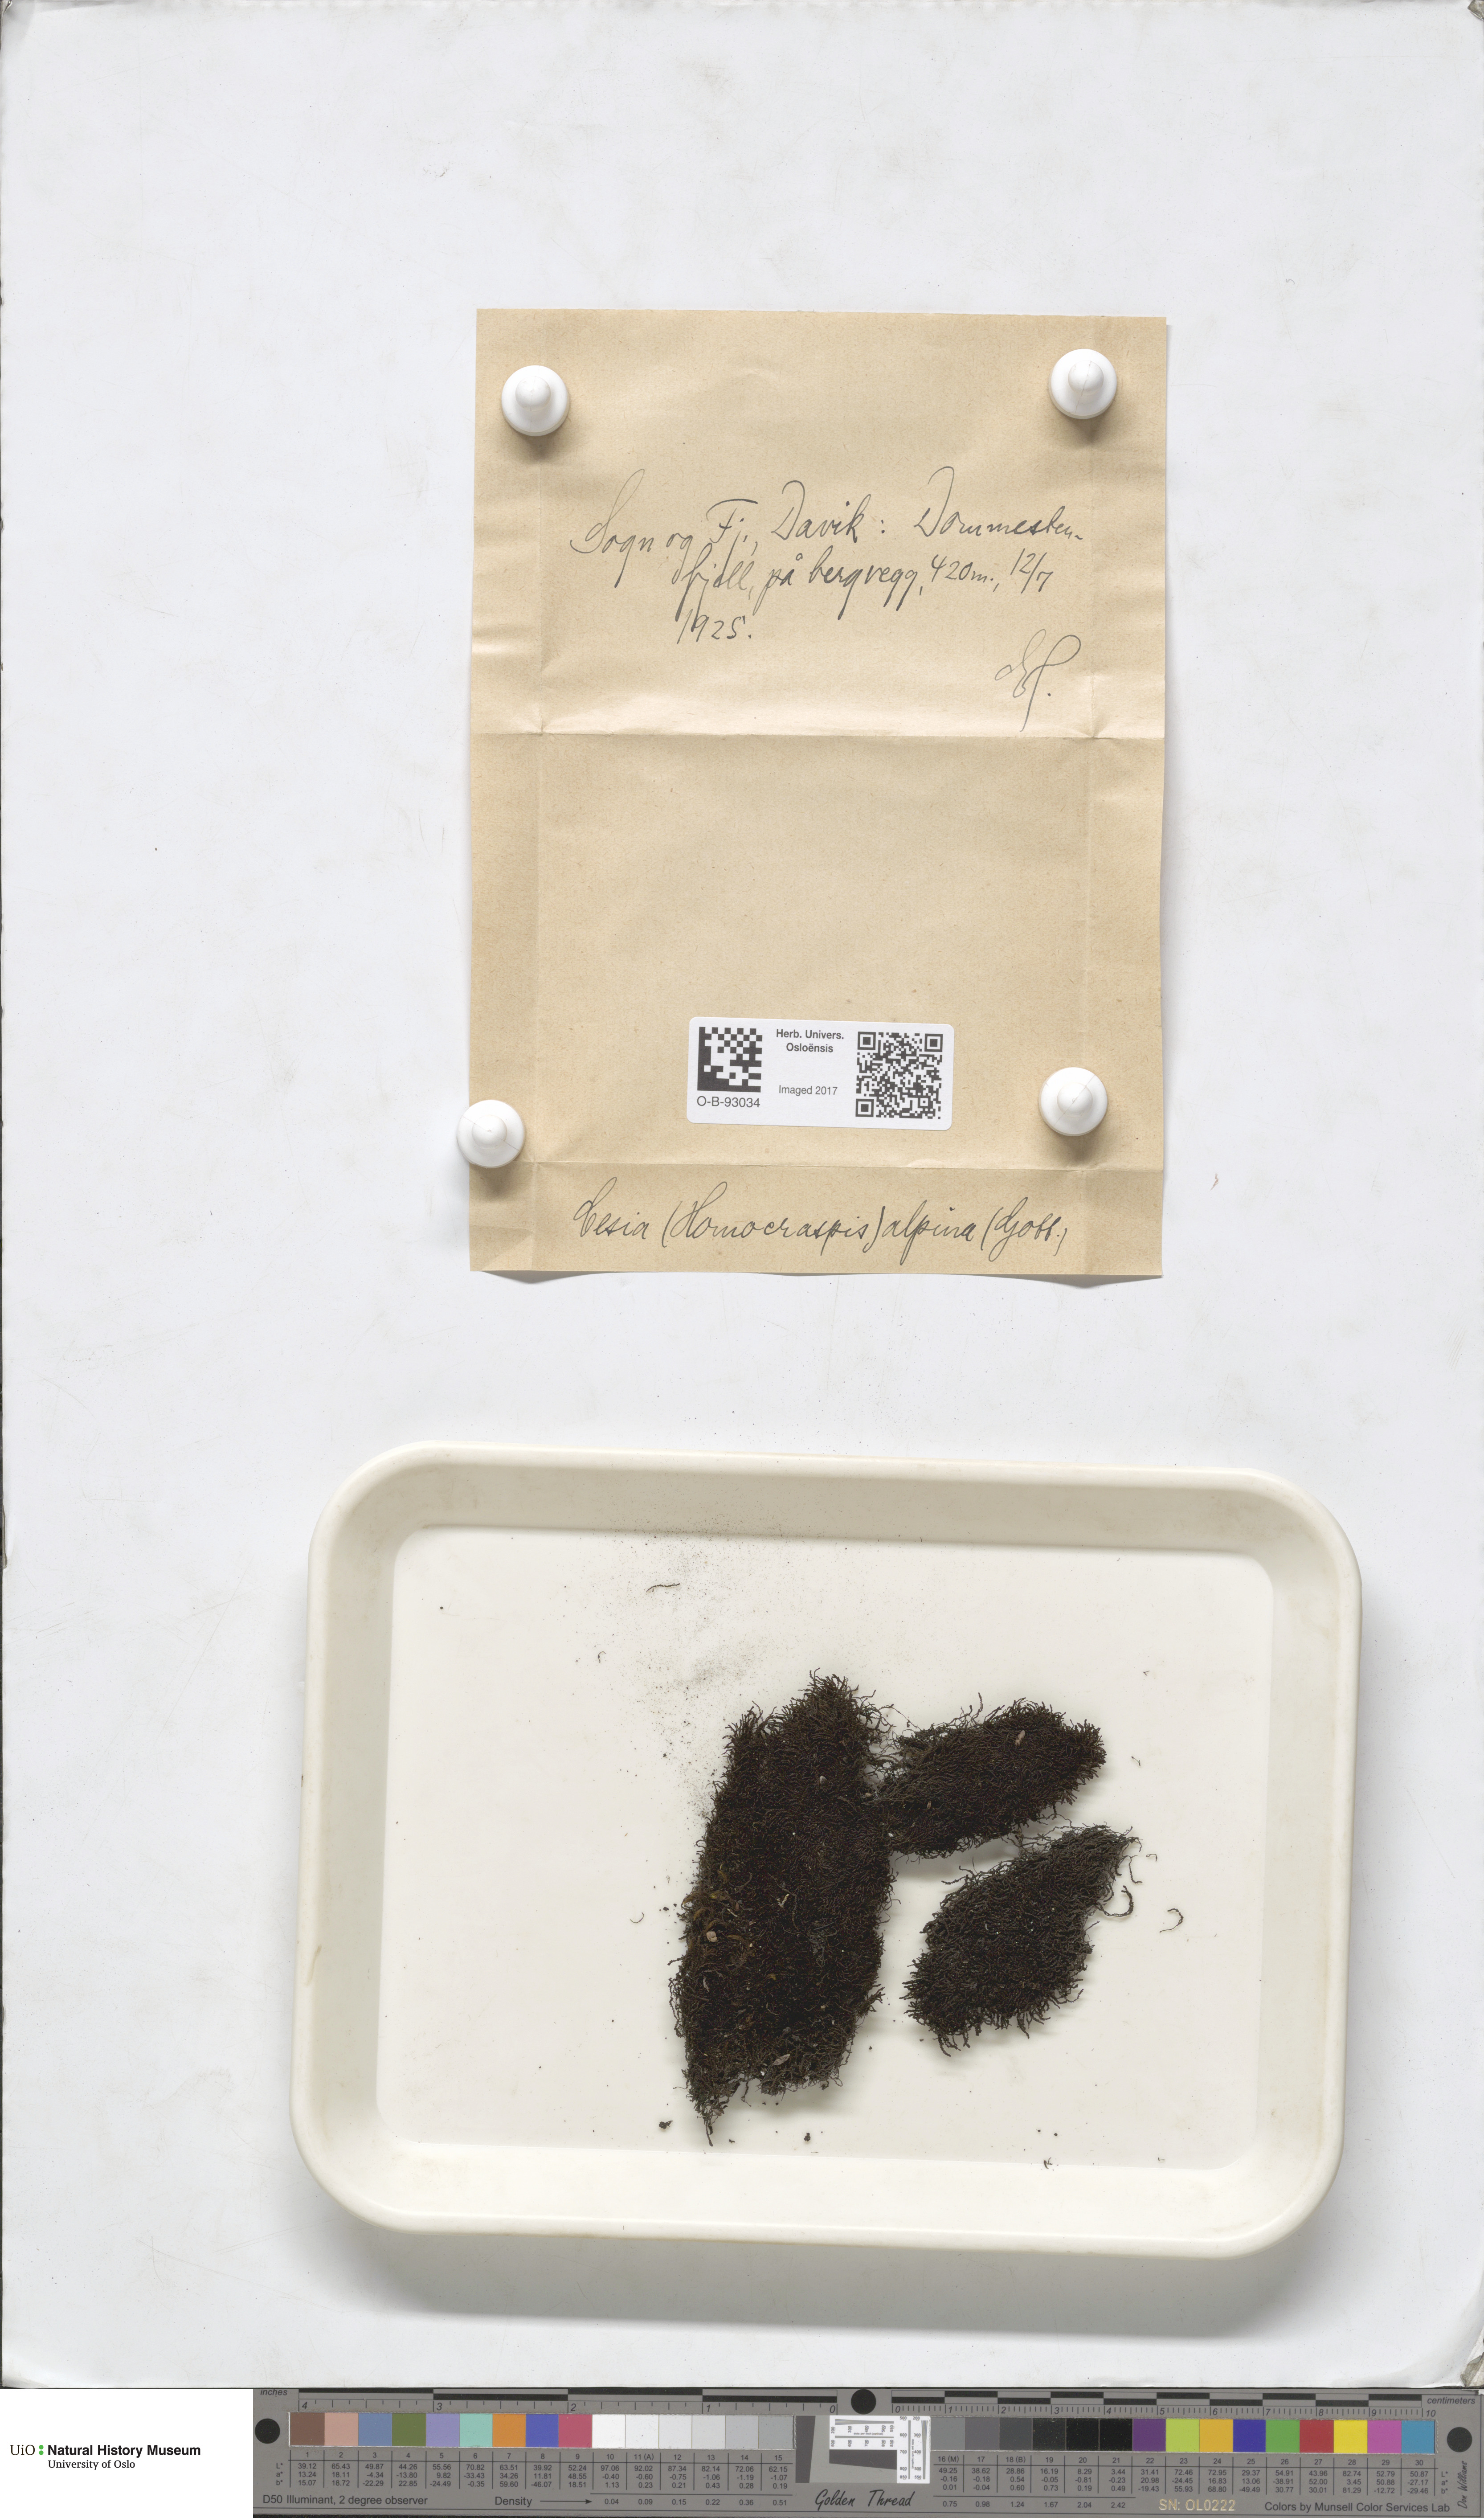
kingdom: Plantae
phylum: Marchantiophyta
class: Jungermanniopsida
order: Jungermanniales
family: Gymnomitriaceae
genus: Gymnomitrion
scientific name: Gymnomitrion alpinum
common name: Alpine rustwort
